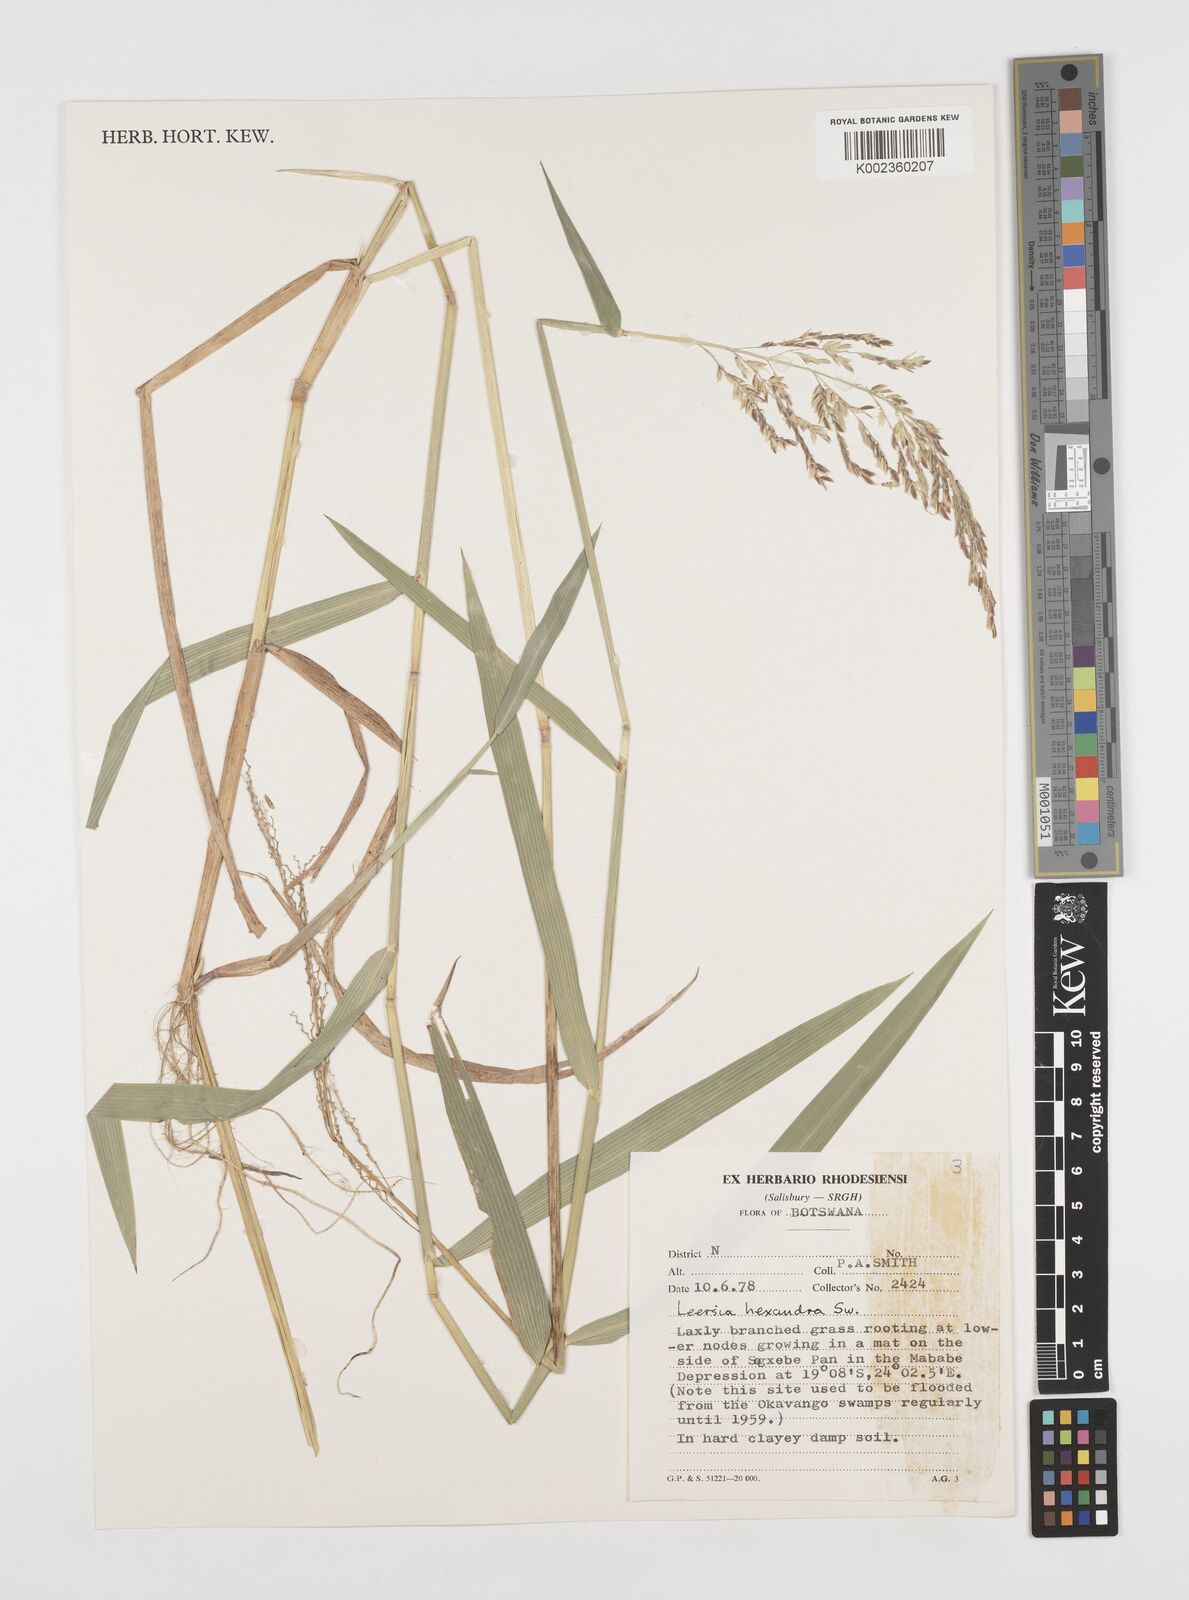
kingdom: Plantae
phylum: Tracheophyta
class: Liliopsida
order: Poales
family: Poaceae
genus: Leersia
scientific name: Leersia hexandra
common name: Southern cut grass
